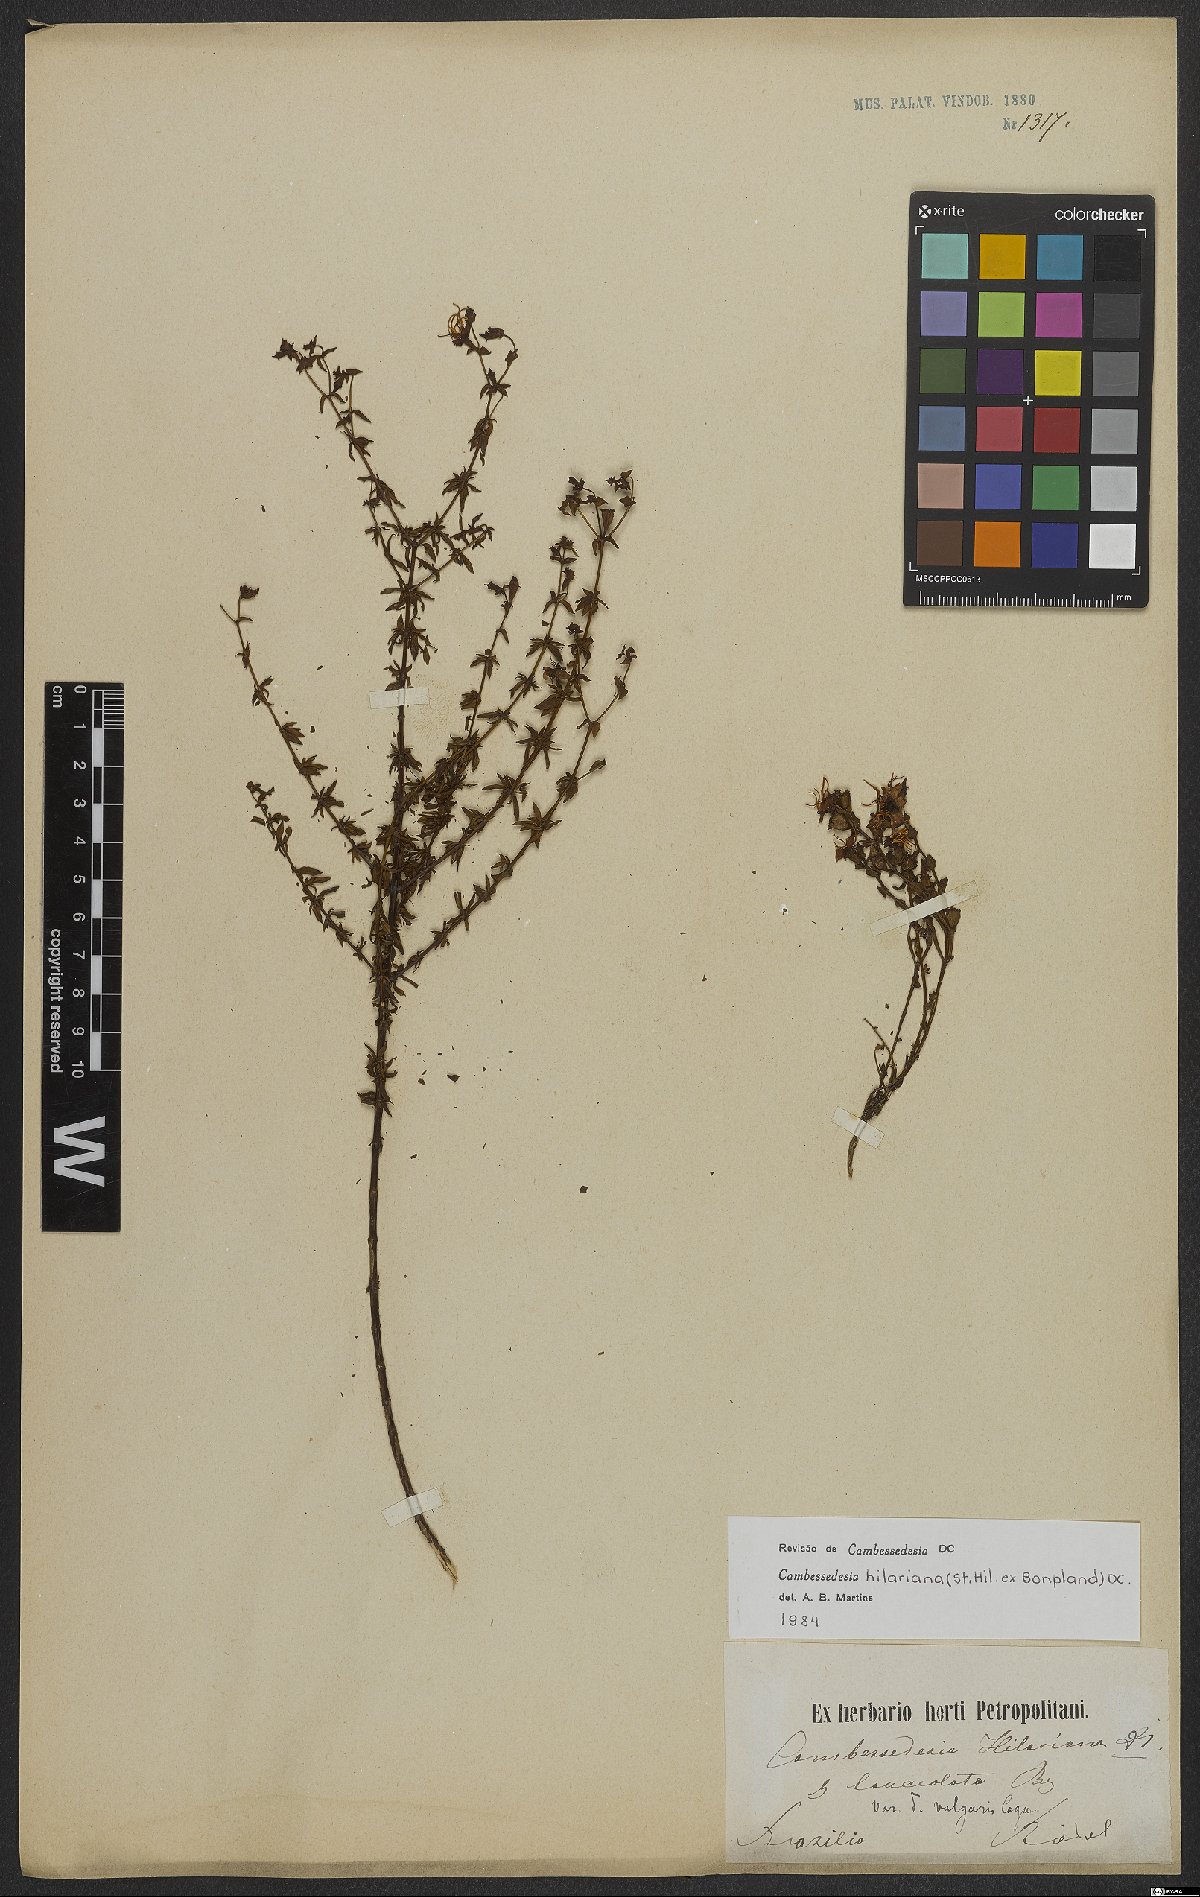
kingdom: Plantae
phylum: Tracheophyta
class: Magnoliopsida
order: Myrtales
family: Melastomataceae
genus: Cambessedesia
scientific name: Cambessedesia hilariana
